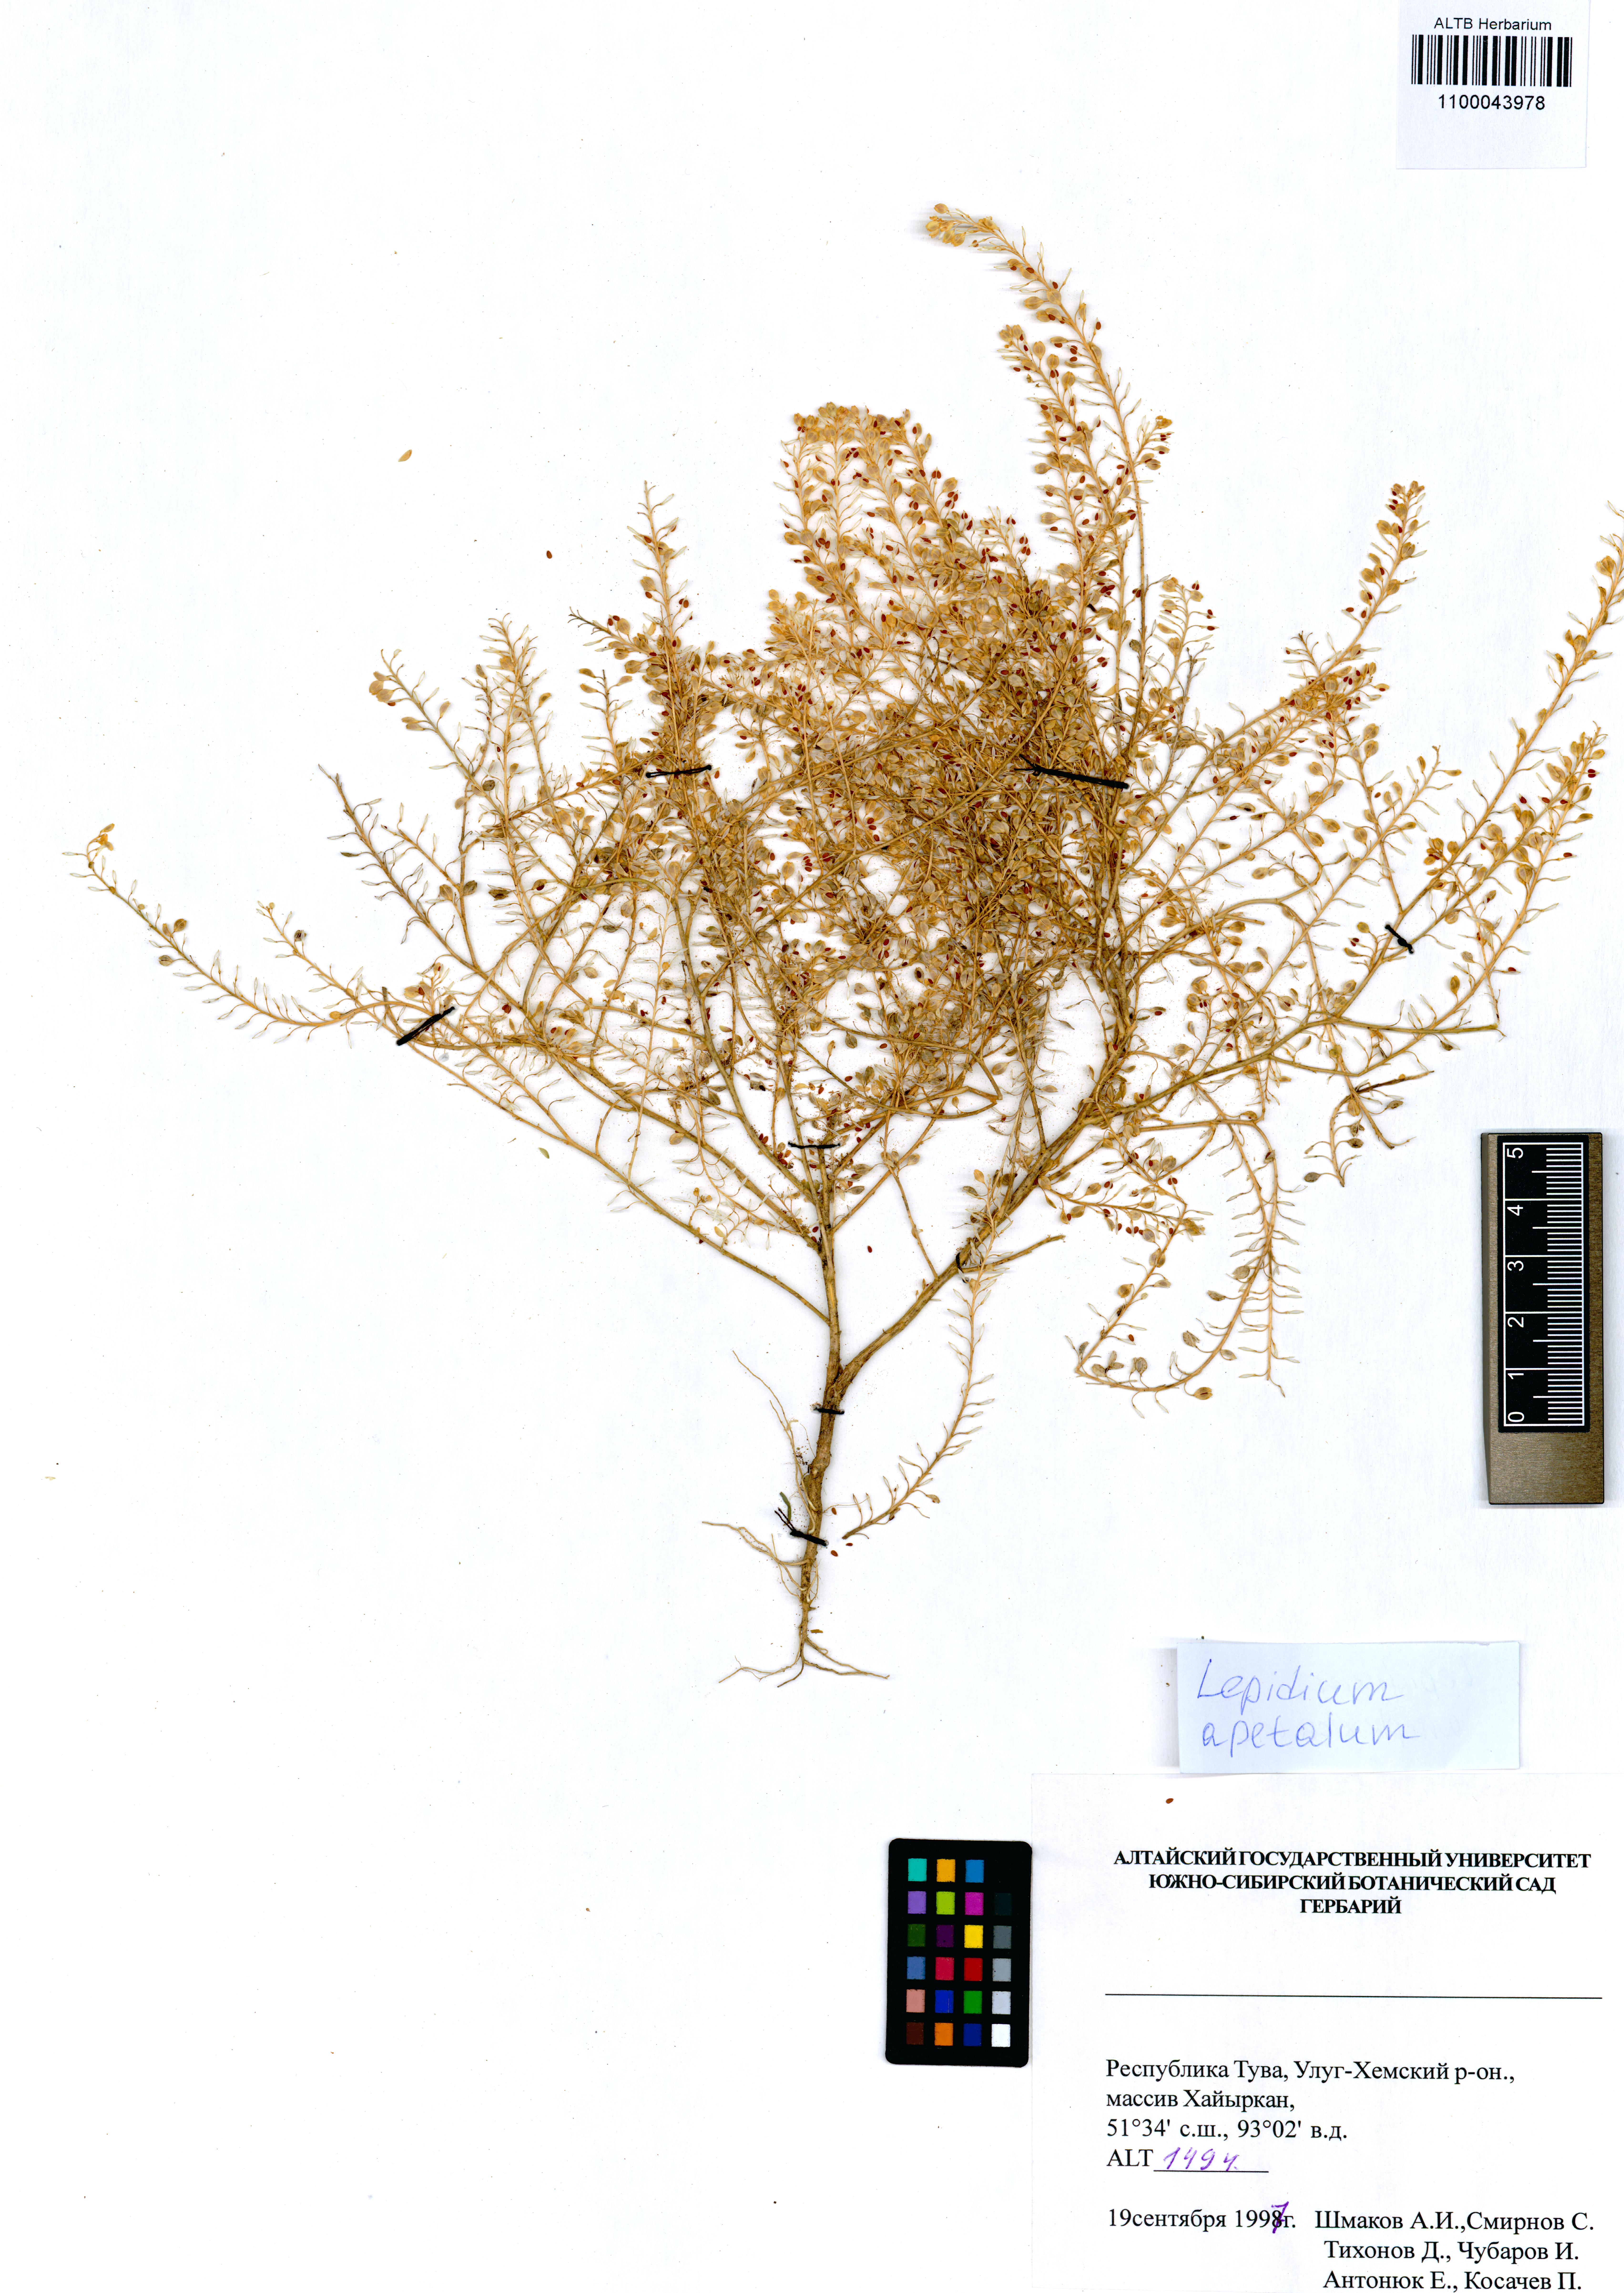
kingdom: Plantae
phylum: Tracheophyta
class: Magnoliopsida
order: Brassicales
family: Brassicaceae
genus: Lepidium
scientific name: Lepidium apetalum
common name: Pepperweed
